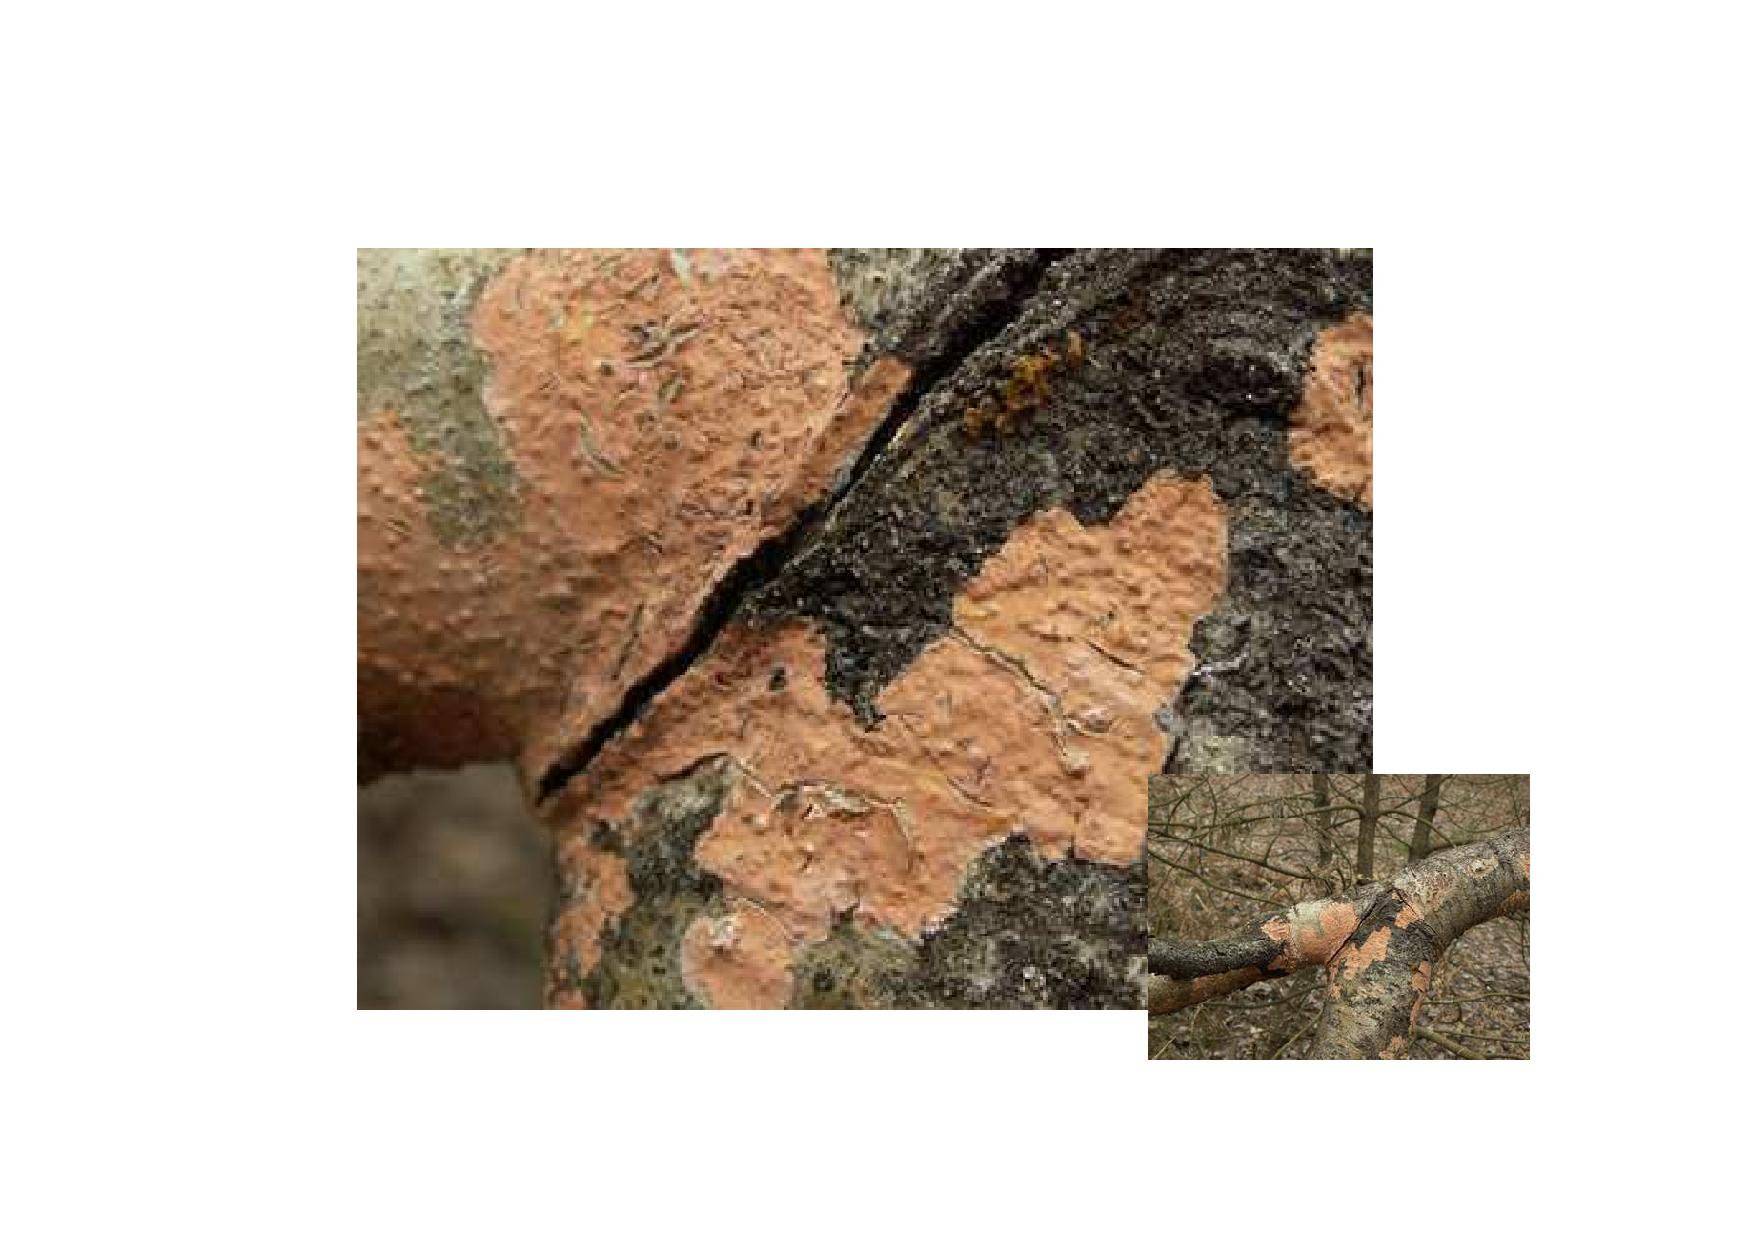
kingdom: Fungi
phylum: Basidiomycota
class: Agaricomycetes
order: Russulales
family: Peniophoraceae
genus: Peniophora
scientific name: Peniophora incarnata
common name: laksefarvet voksskind
